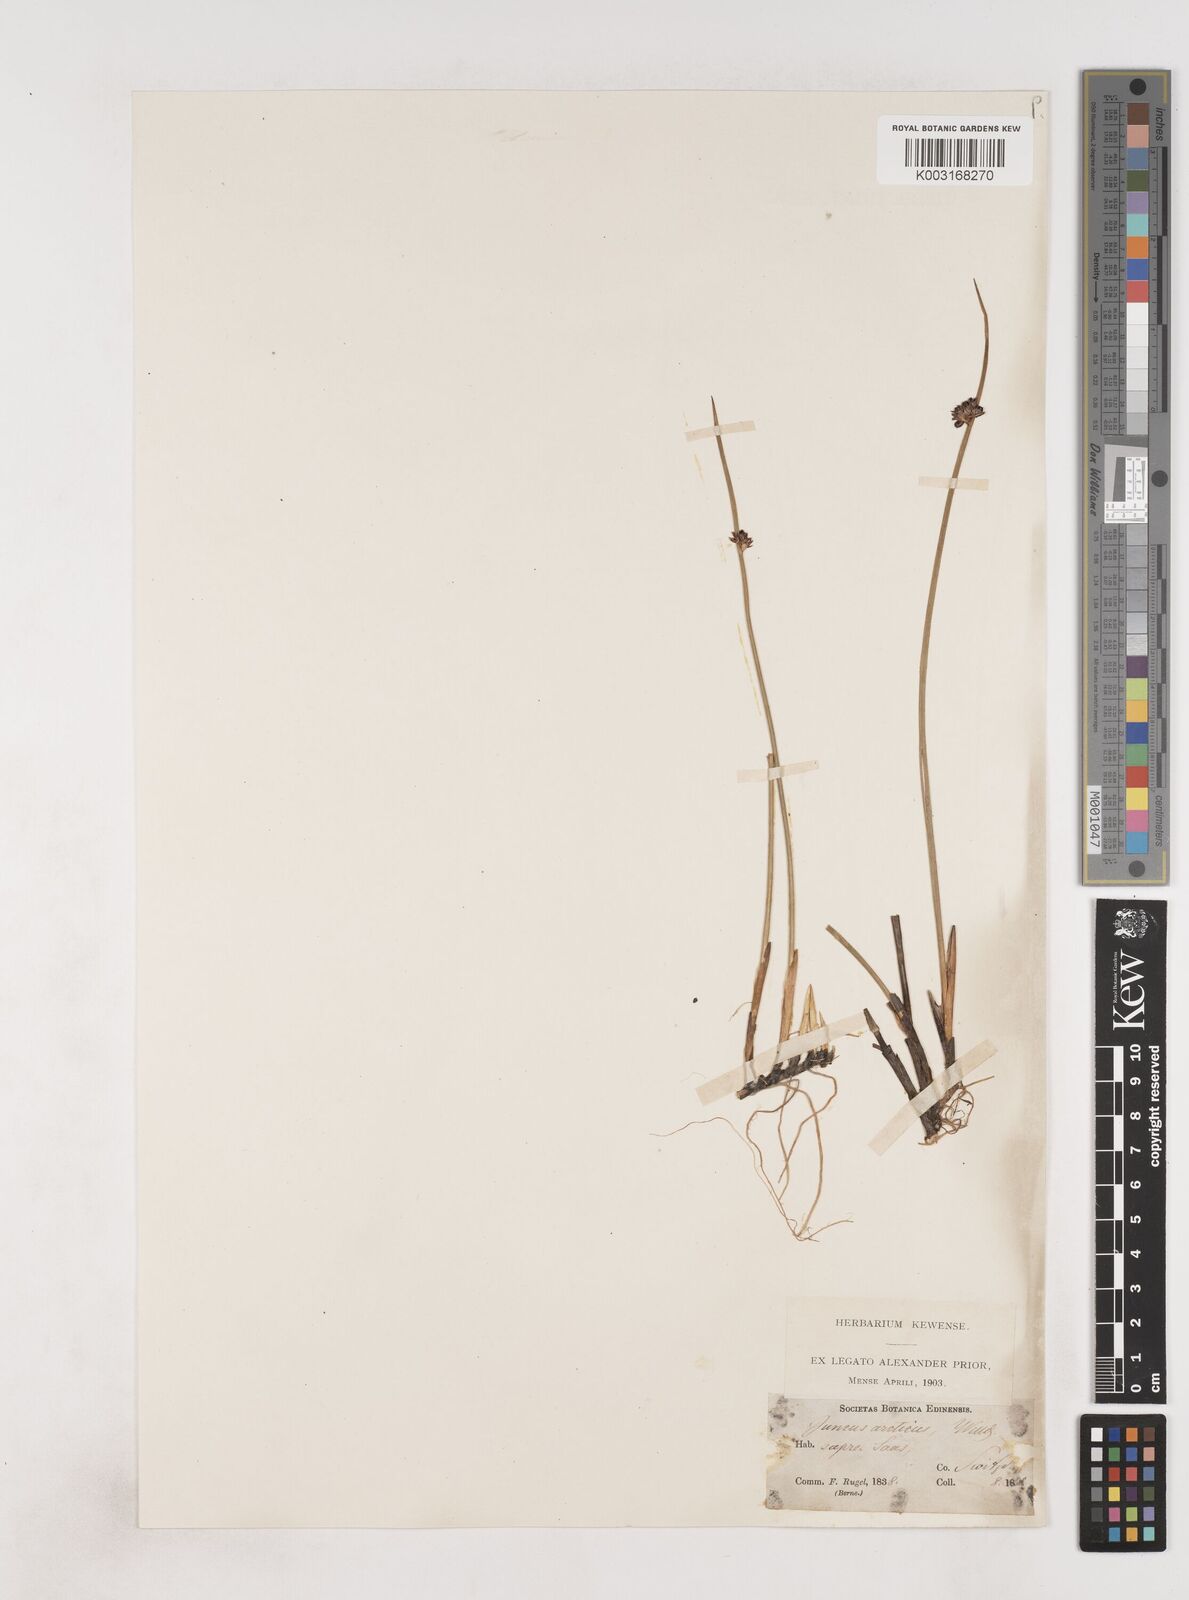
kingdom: Plantae
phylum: Tracheophyta
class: Liliopsida
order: Poales
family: Juncaceae
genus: Juncus
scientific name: Juncus arcticus
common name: Arctic rush
